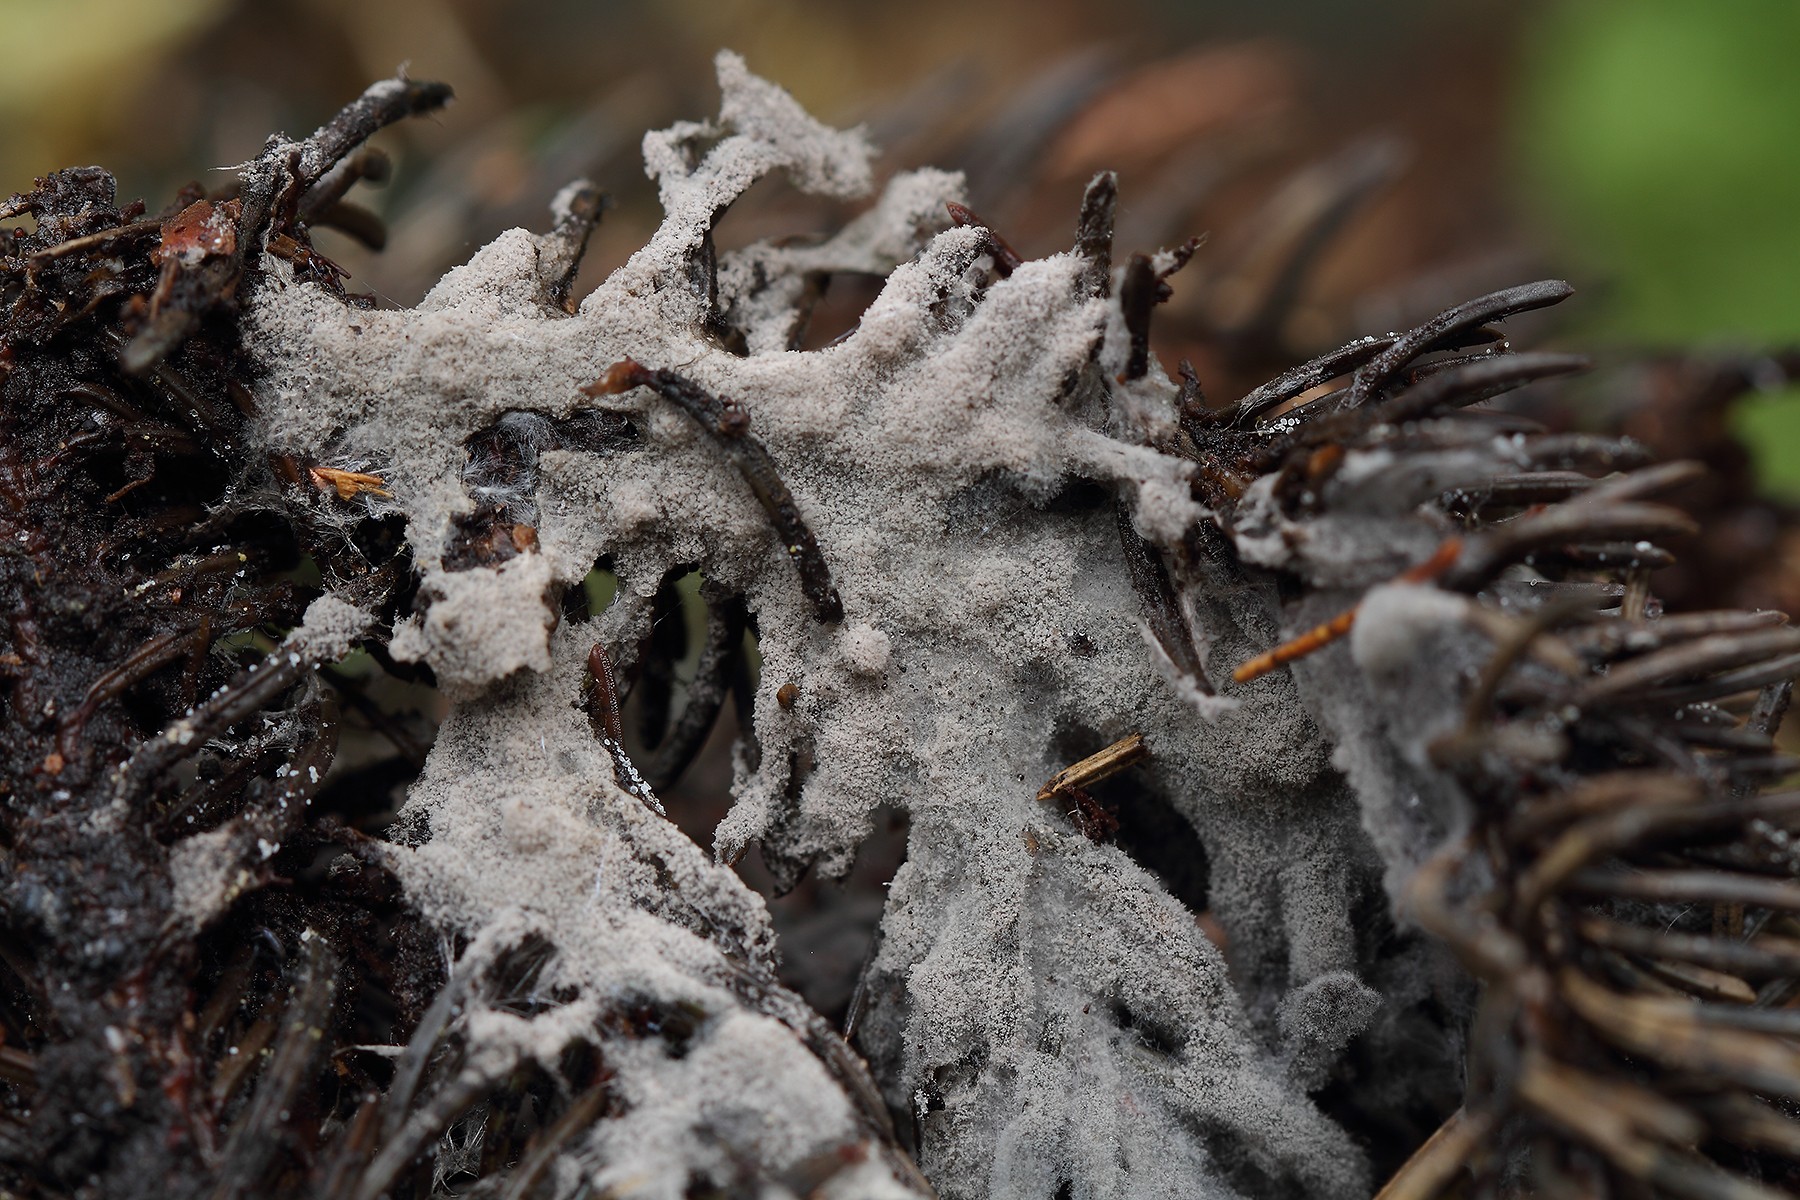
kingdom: Fungi
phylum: Ascomycota
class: Sordariomycetes
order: Xylariales
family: Xylariaceae
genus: Rosellinia
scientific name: Rosellinia
